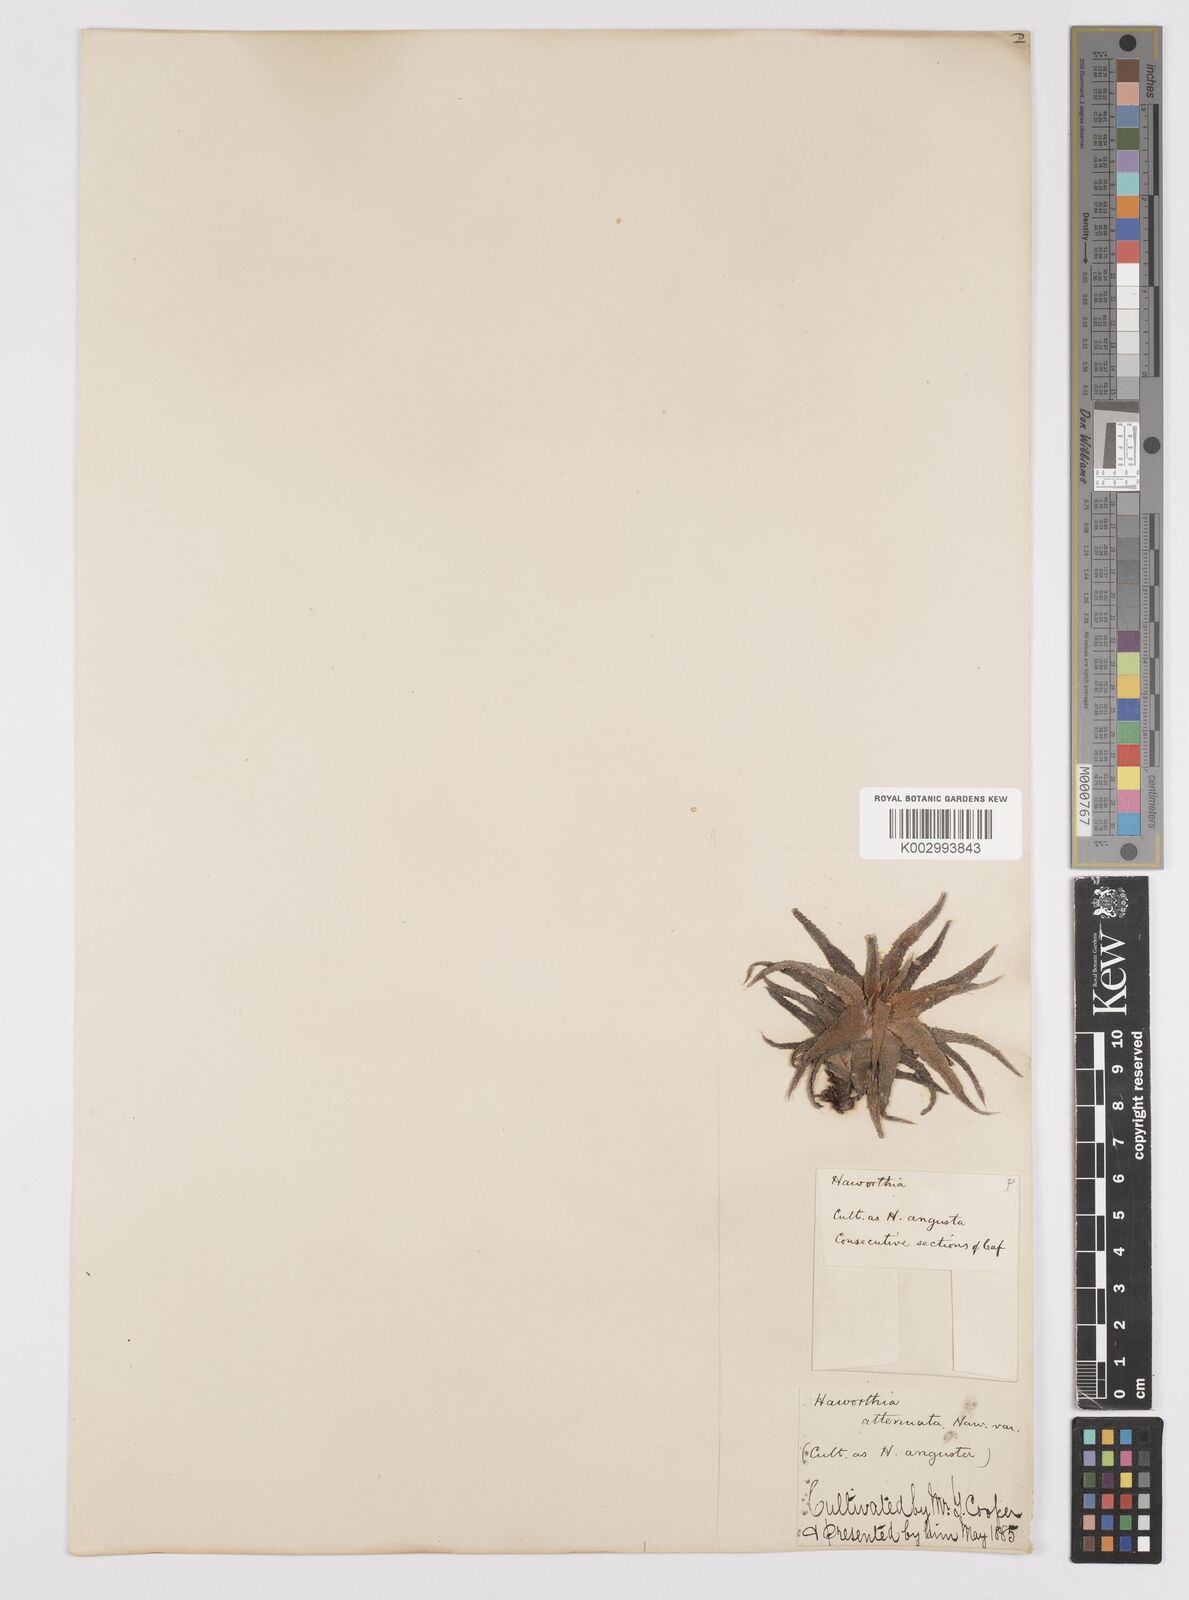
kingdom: Plantae
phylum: Tracheophyta
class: Liliopsida
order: Asparagales
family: Asphodelaceae
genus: Haworthiopsis
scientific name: Haworthiopsis attenuata
